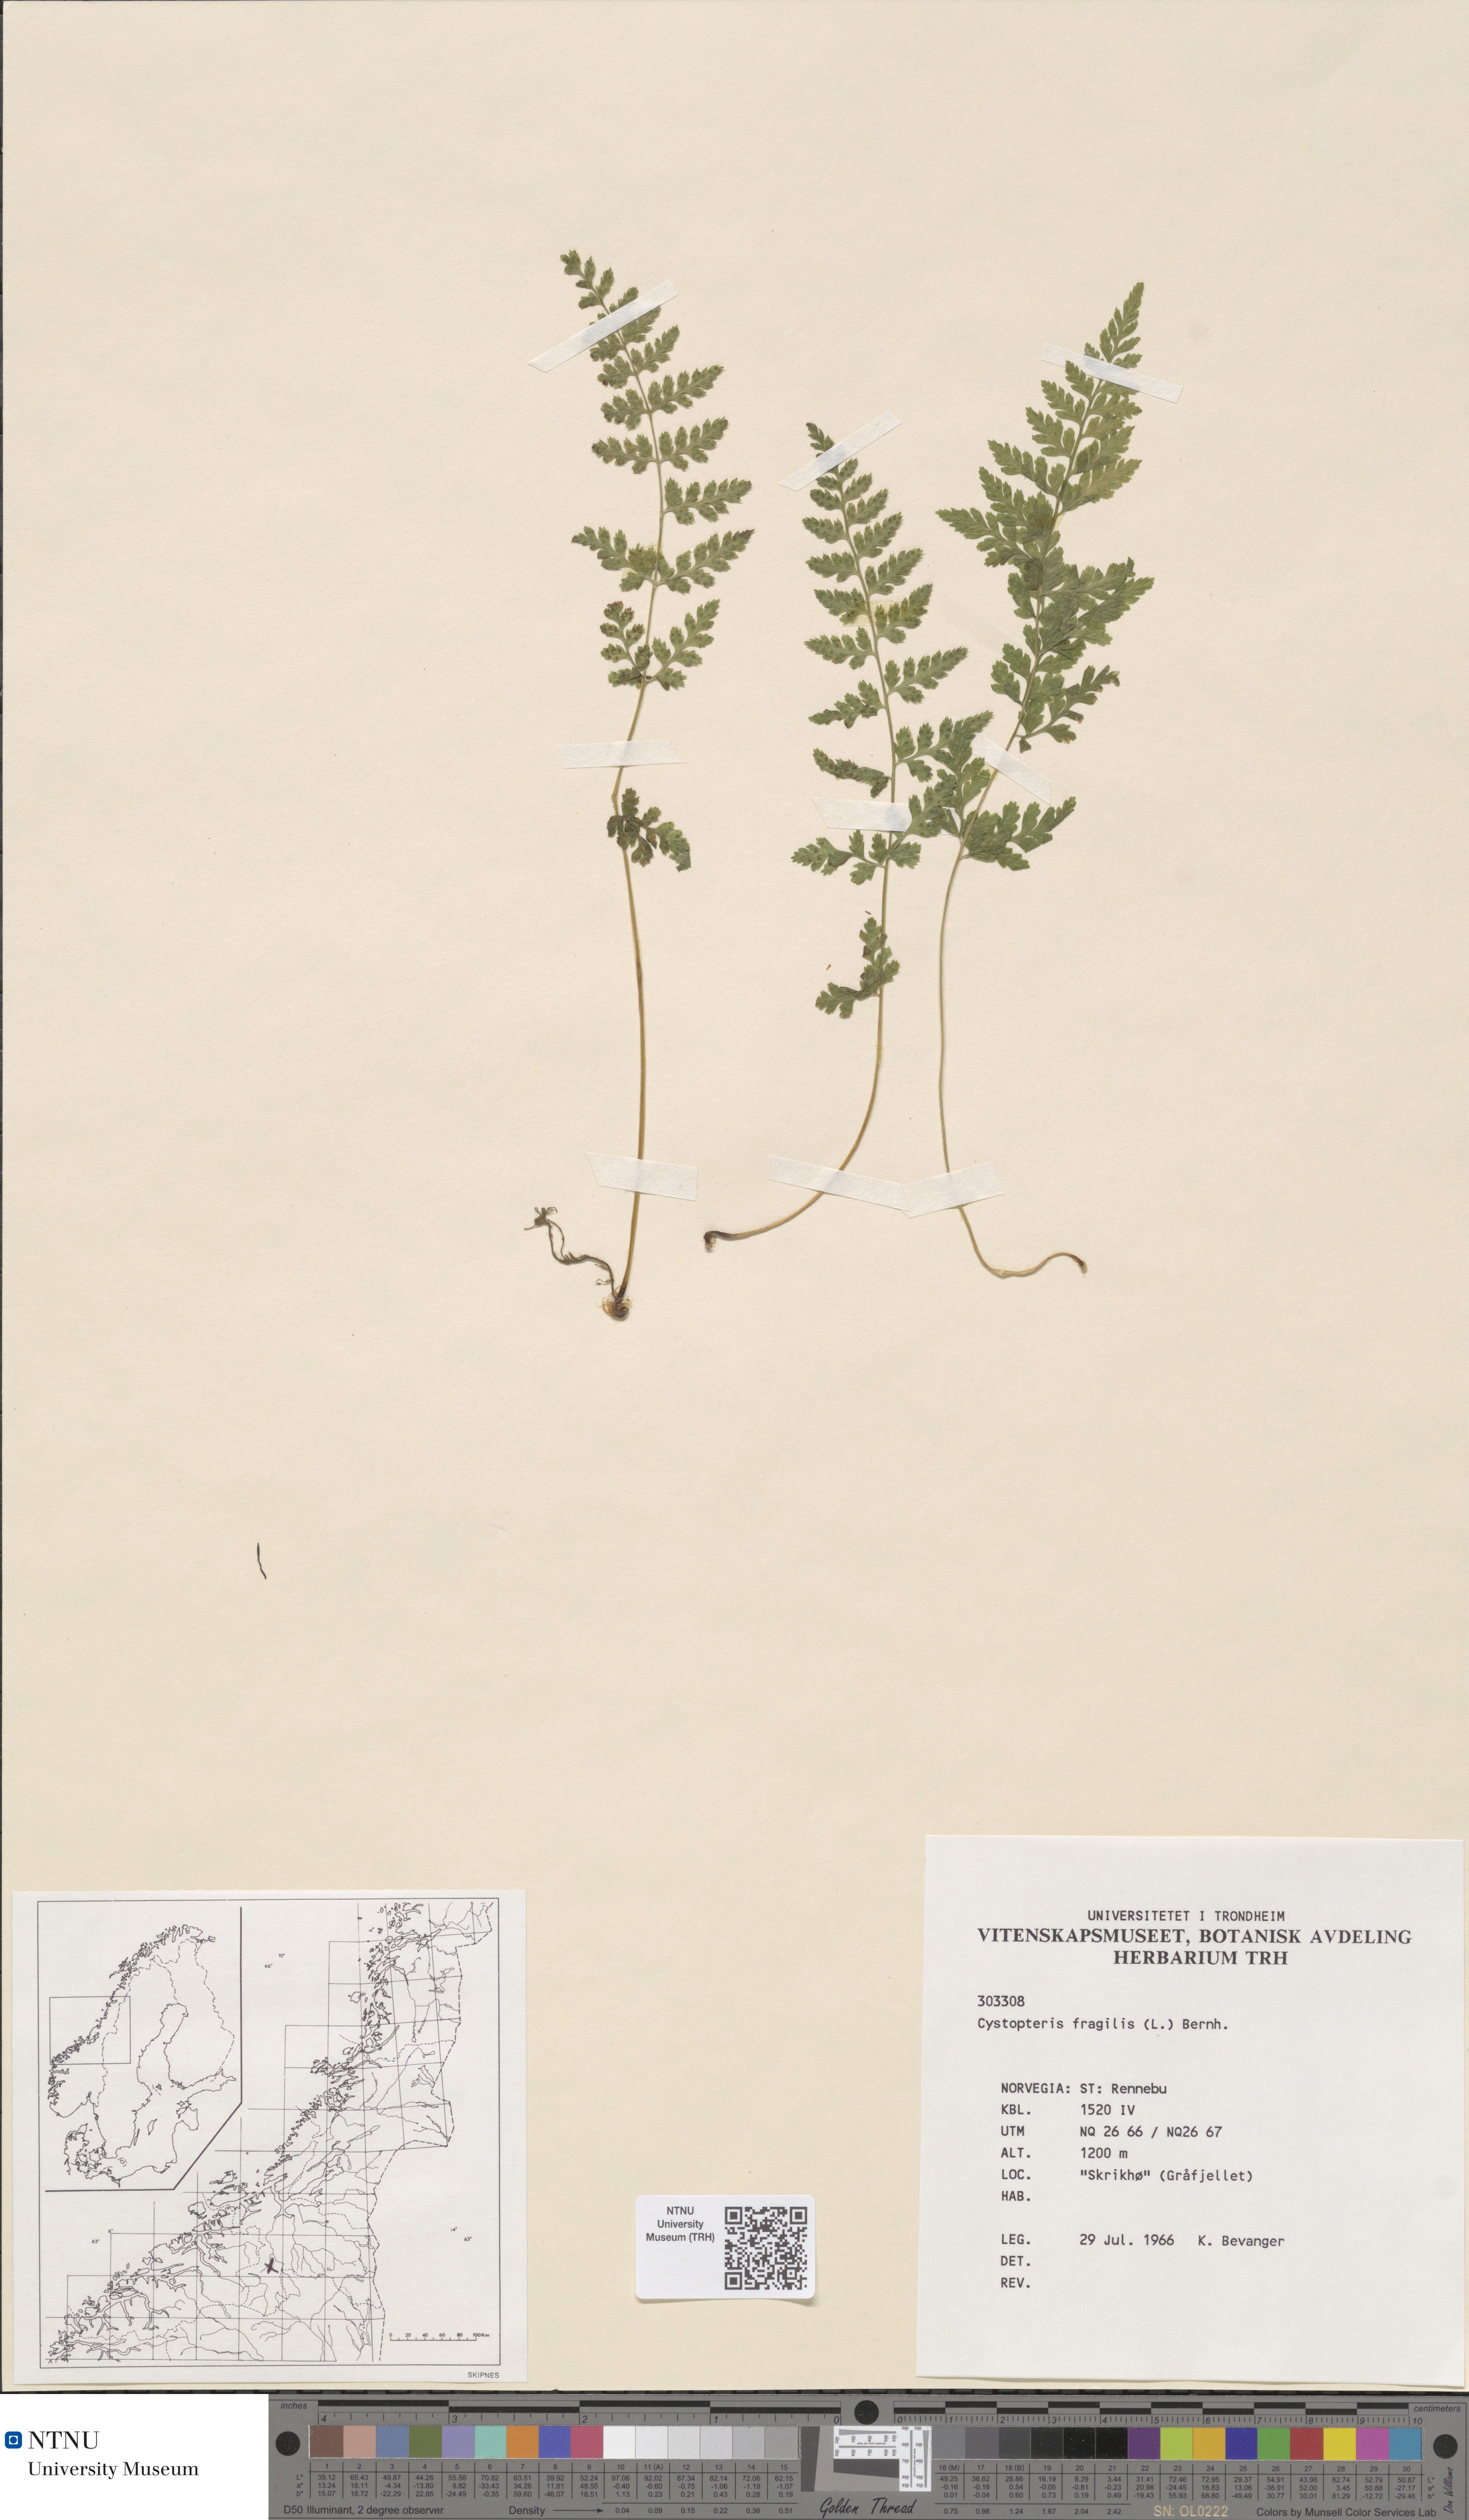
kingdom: Plantae
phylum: Tracheophyta
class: Polypodiopsida
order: Polypodiales
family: Cystopteridaceae
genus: Cystopteris
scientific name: Cystopteris fragilis
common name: Brittle bladder fern
